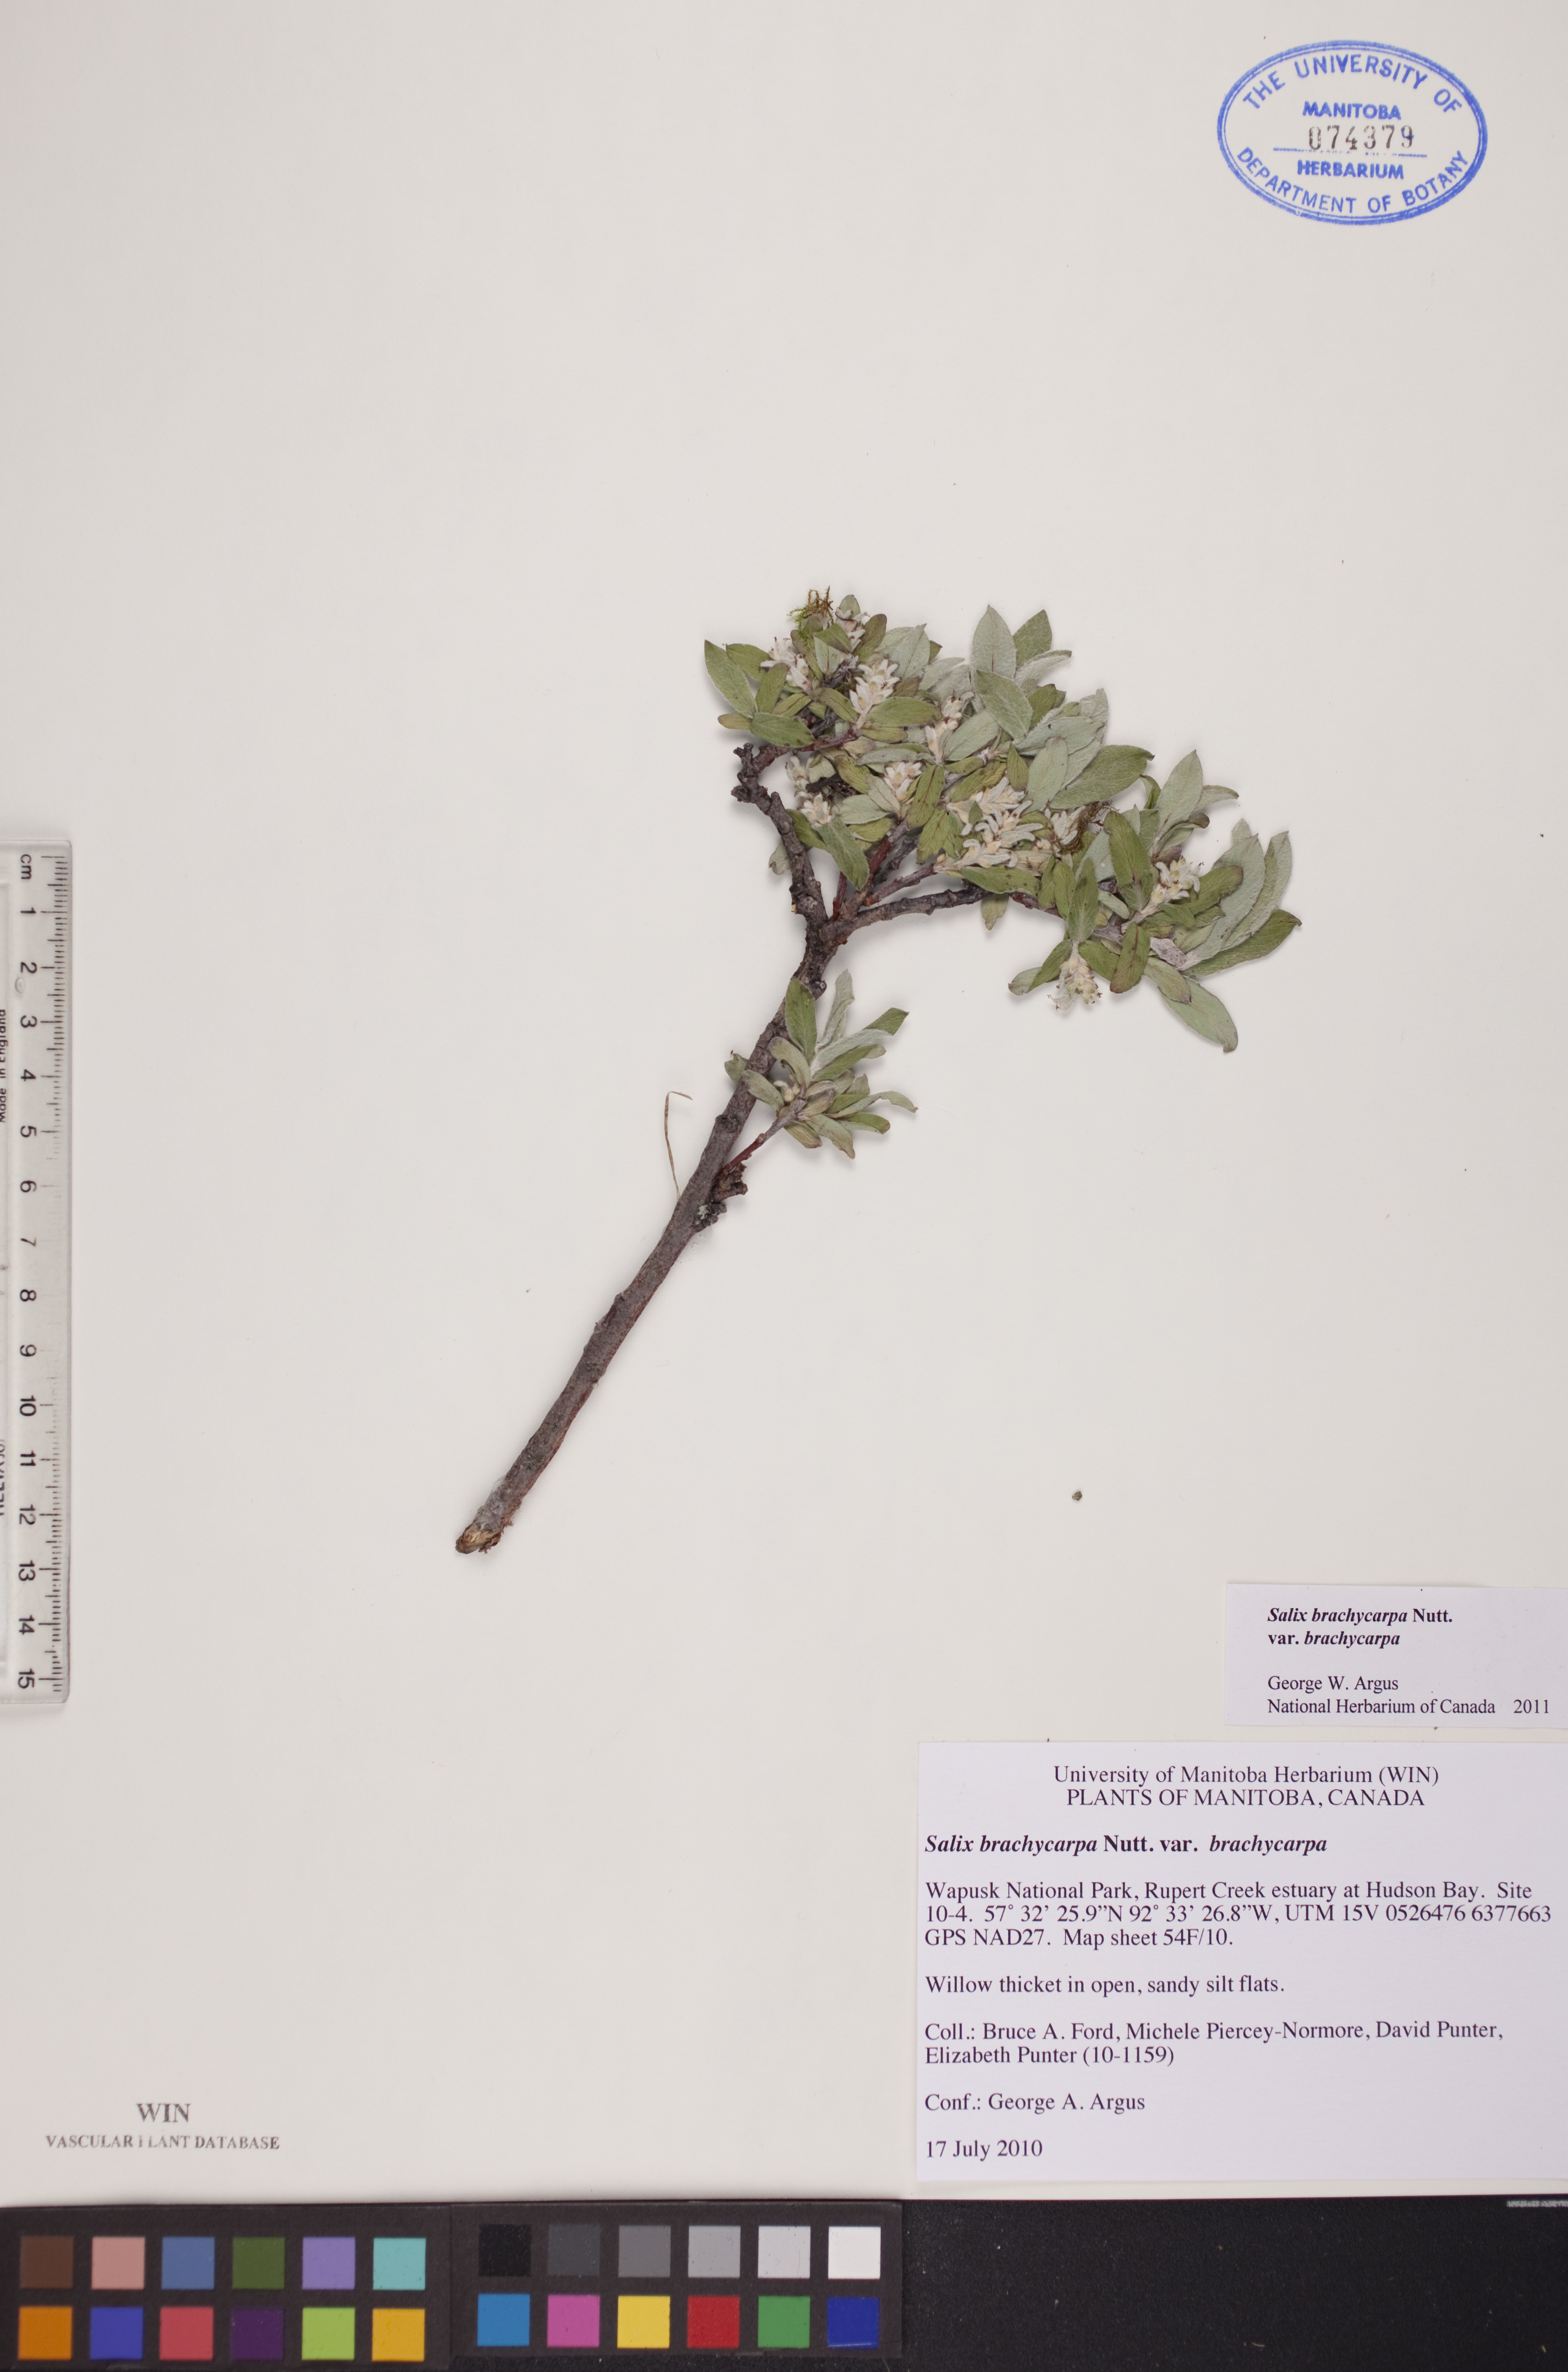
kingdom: Plantae
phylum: Tracheophyta
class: Magnoliopsida
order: Malpighiales
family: Salicaceae
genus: Salix
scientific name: Salix brachycarpa
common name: Barren-ground willow
